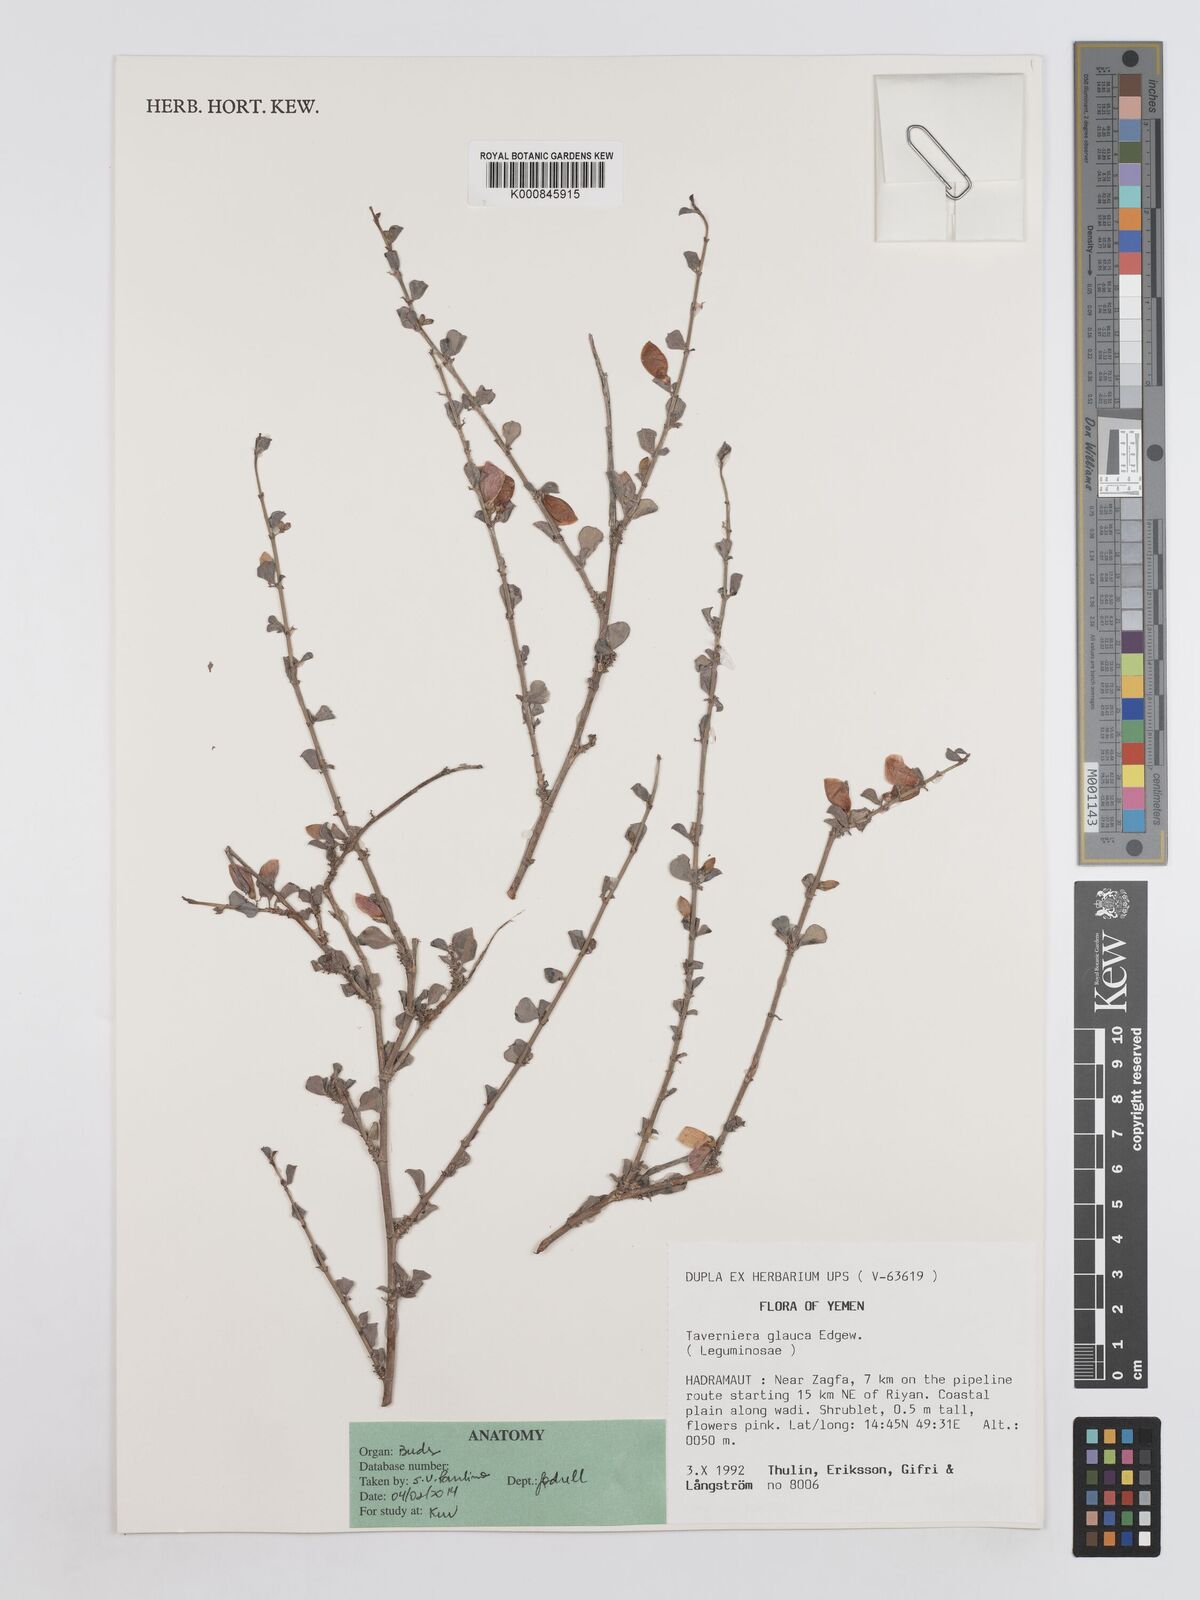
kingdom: Plantae
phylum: Tracheophyta
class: Magnoliopsida
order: Fabales
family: Fabaceae
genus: Taverniera
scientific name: Taverniera glauca
